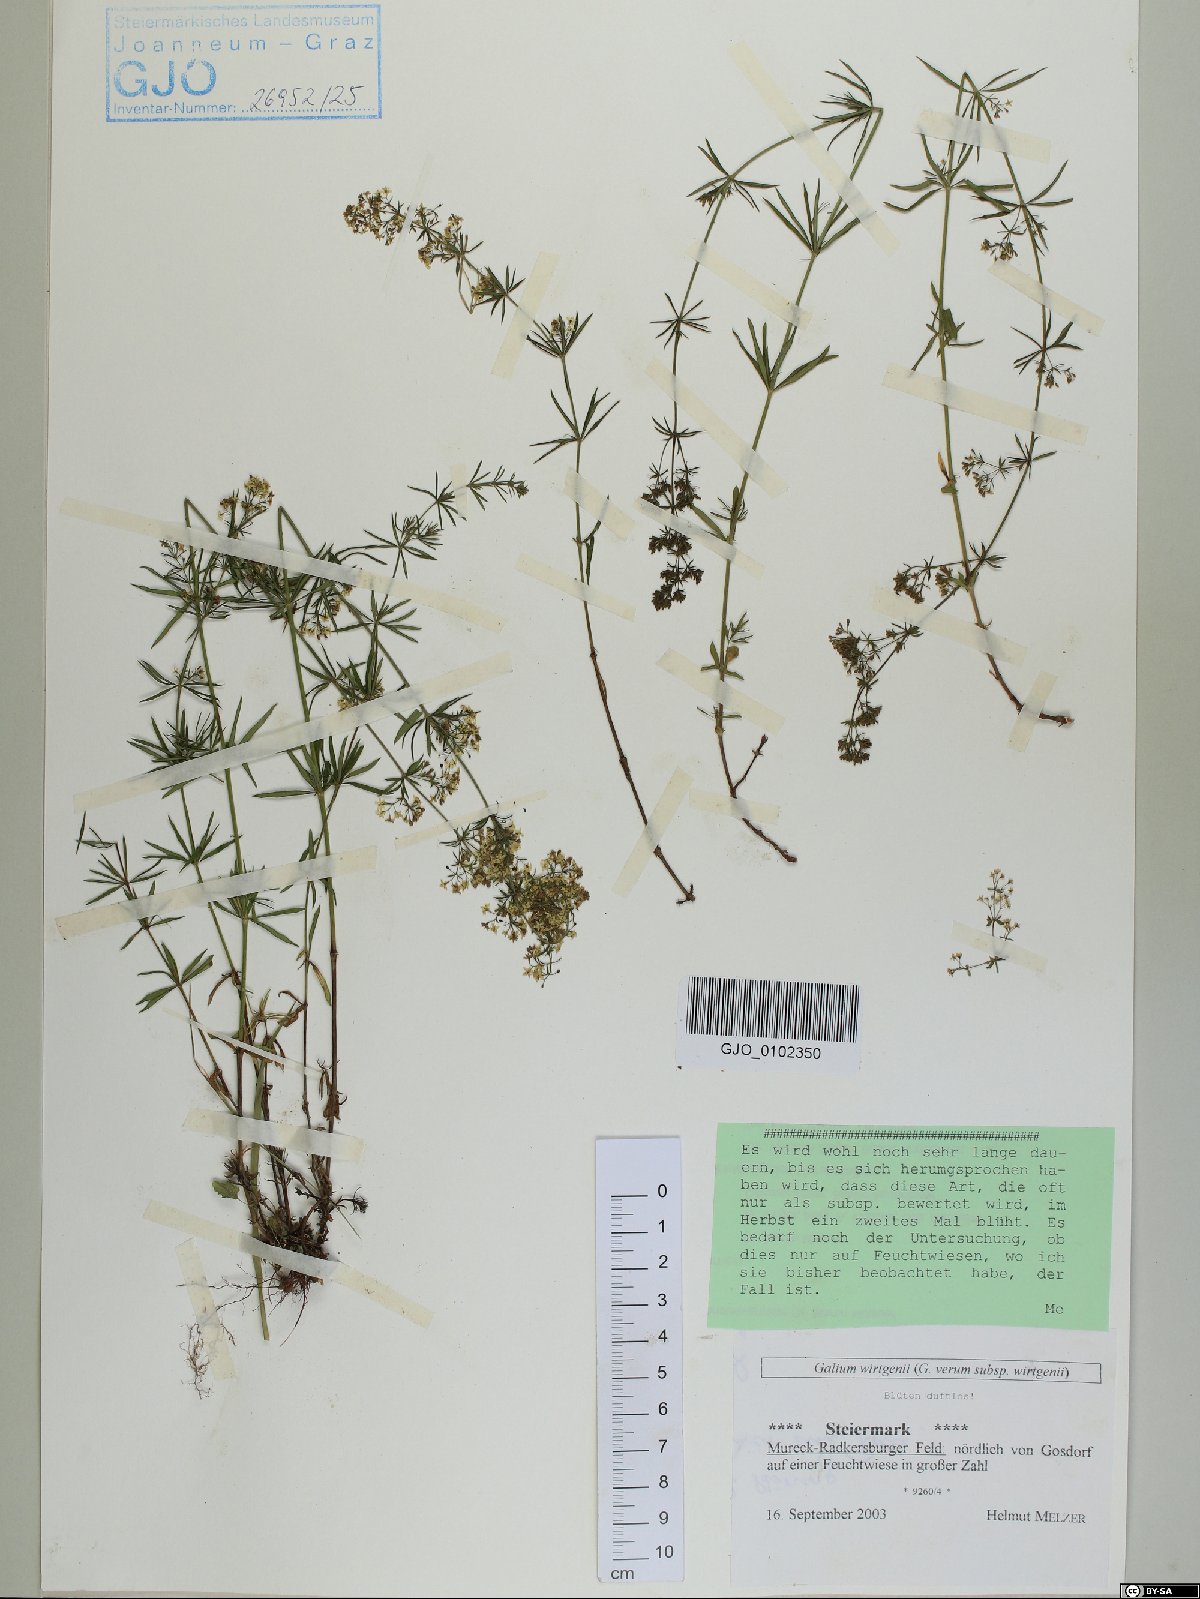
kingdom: Plantae
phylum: Tracheophyta
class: Magnoliopsida
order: Gentianales
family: Rubiaceae
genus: Galium
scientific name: Galium verum
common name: Lady's bedstraw
